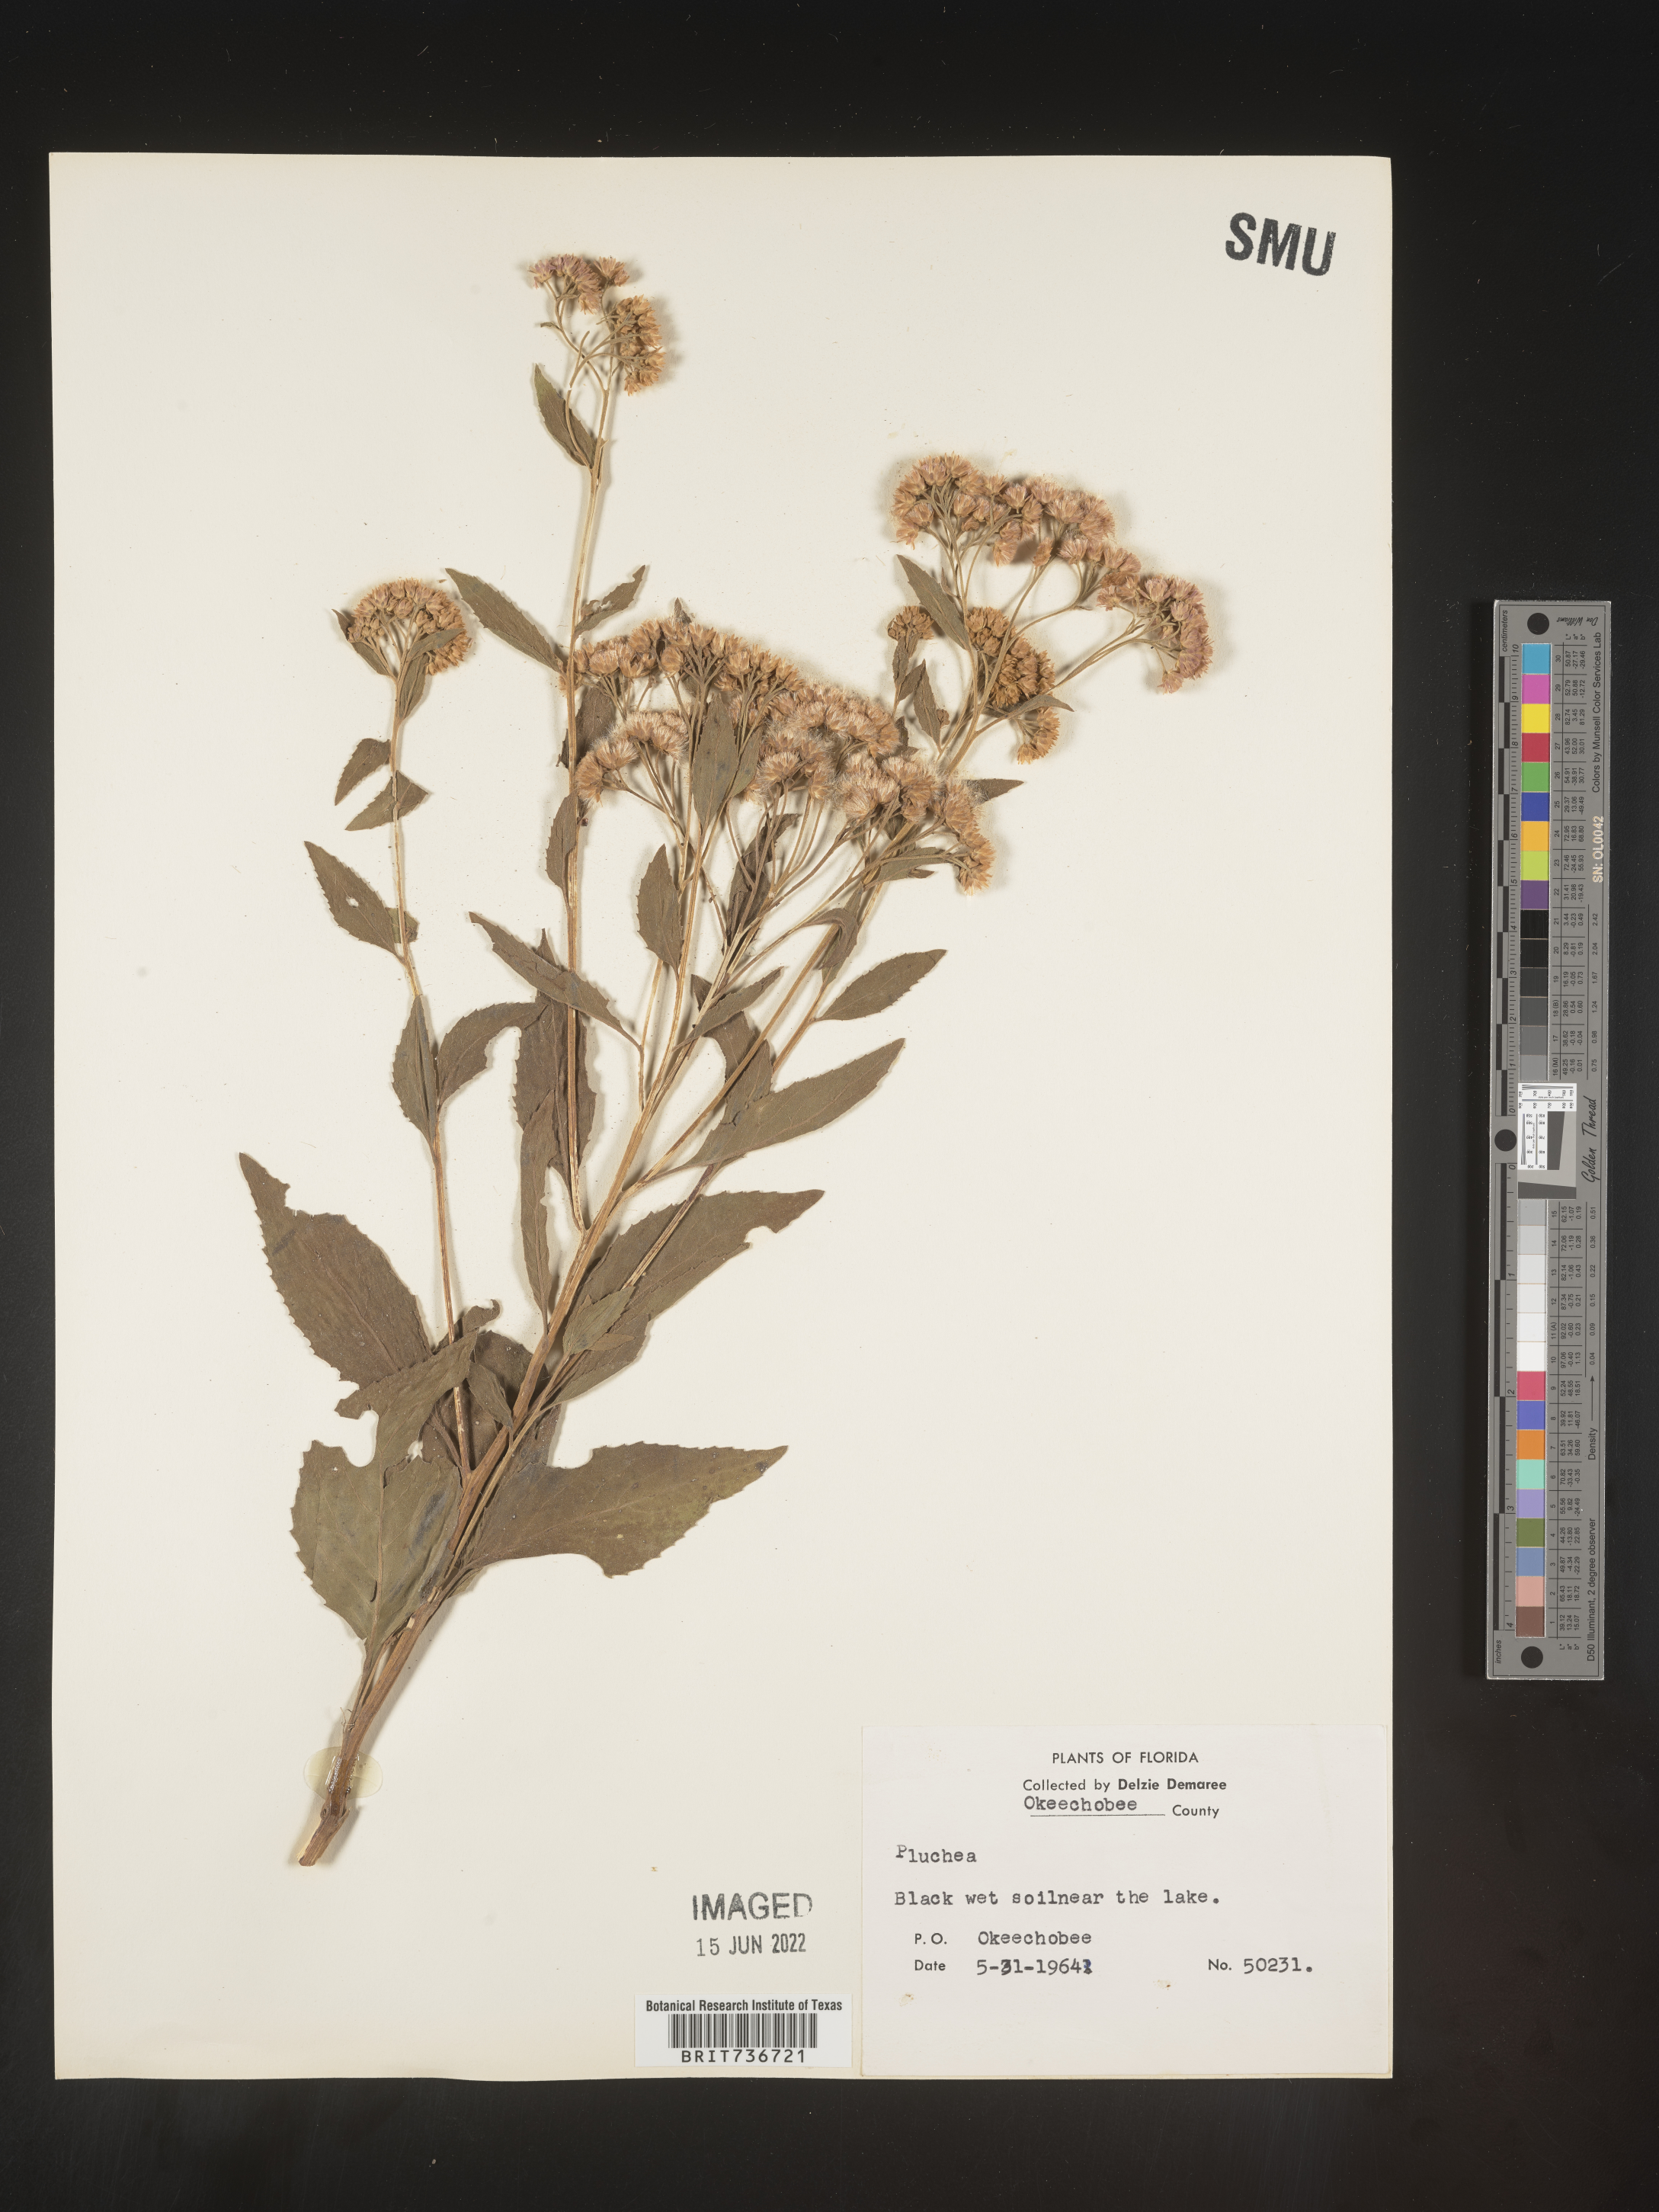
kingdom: Plantae
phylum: Tracheophyta
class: Magnoliopsida
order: Asterales
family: Asteraceae
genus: Pluchea
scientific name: Pluchea odorata
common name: Saltmarsh fleabane
